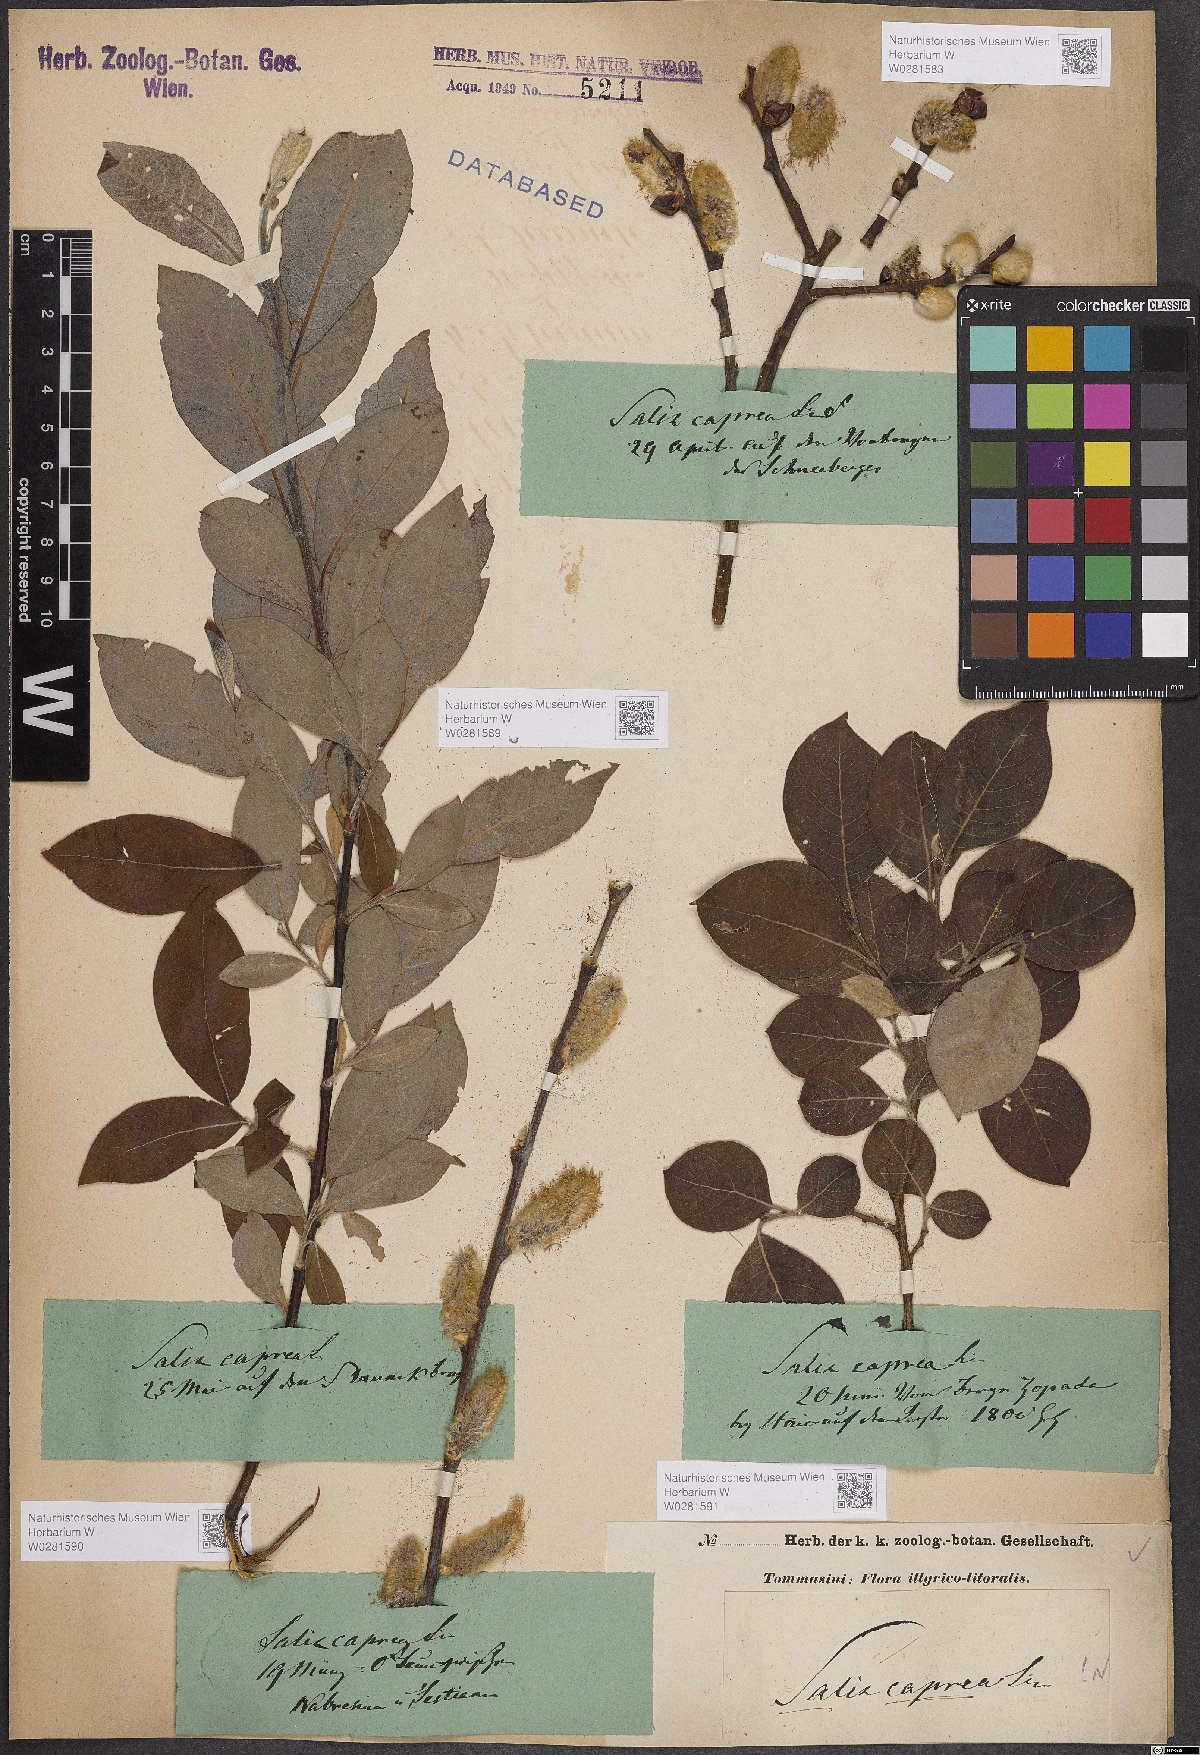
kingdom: Plantae
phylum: Tracheophyta
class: Magnoliopsida
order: Malpighiales
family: Salicaceae
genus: Salix
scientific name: Salix caprea
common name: Goat willow
